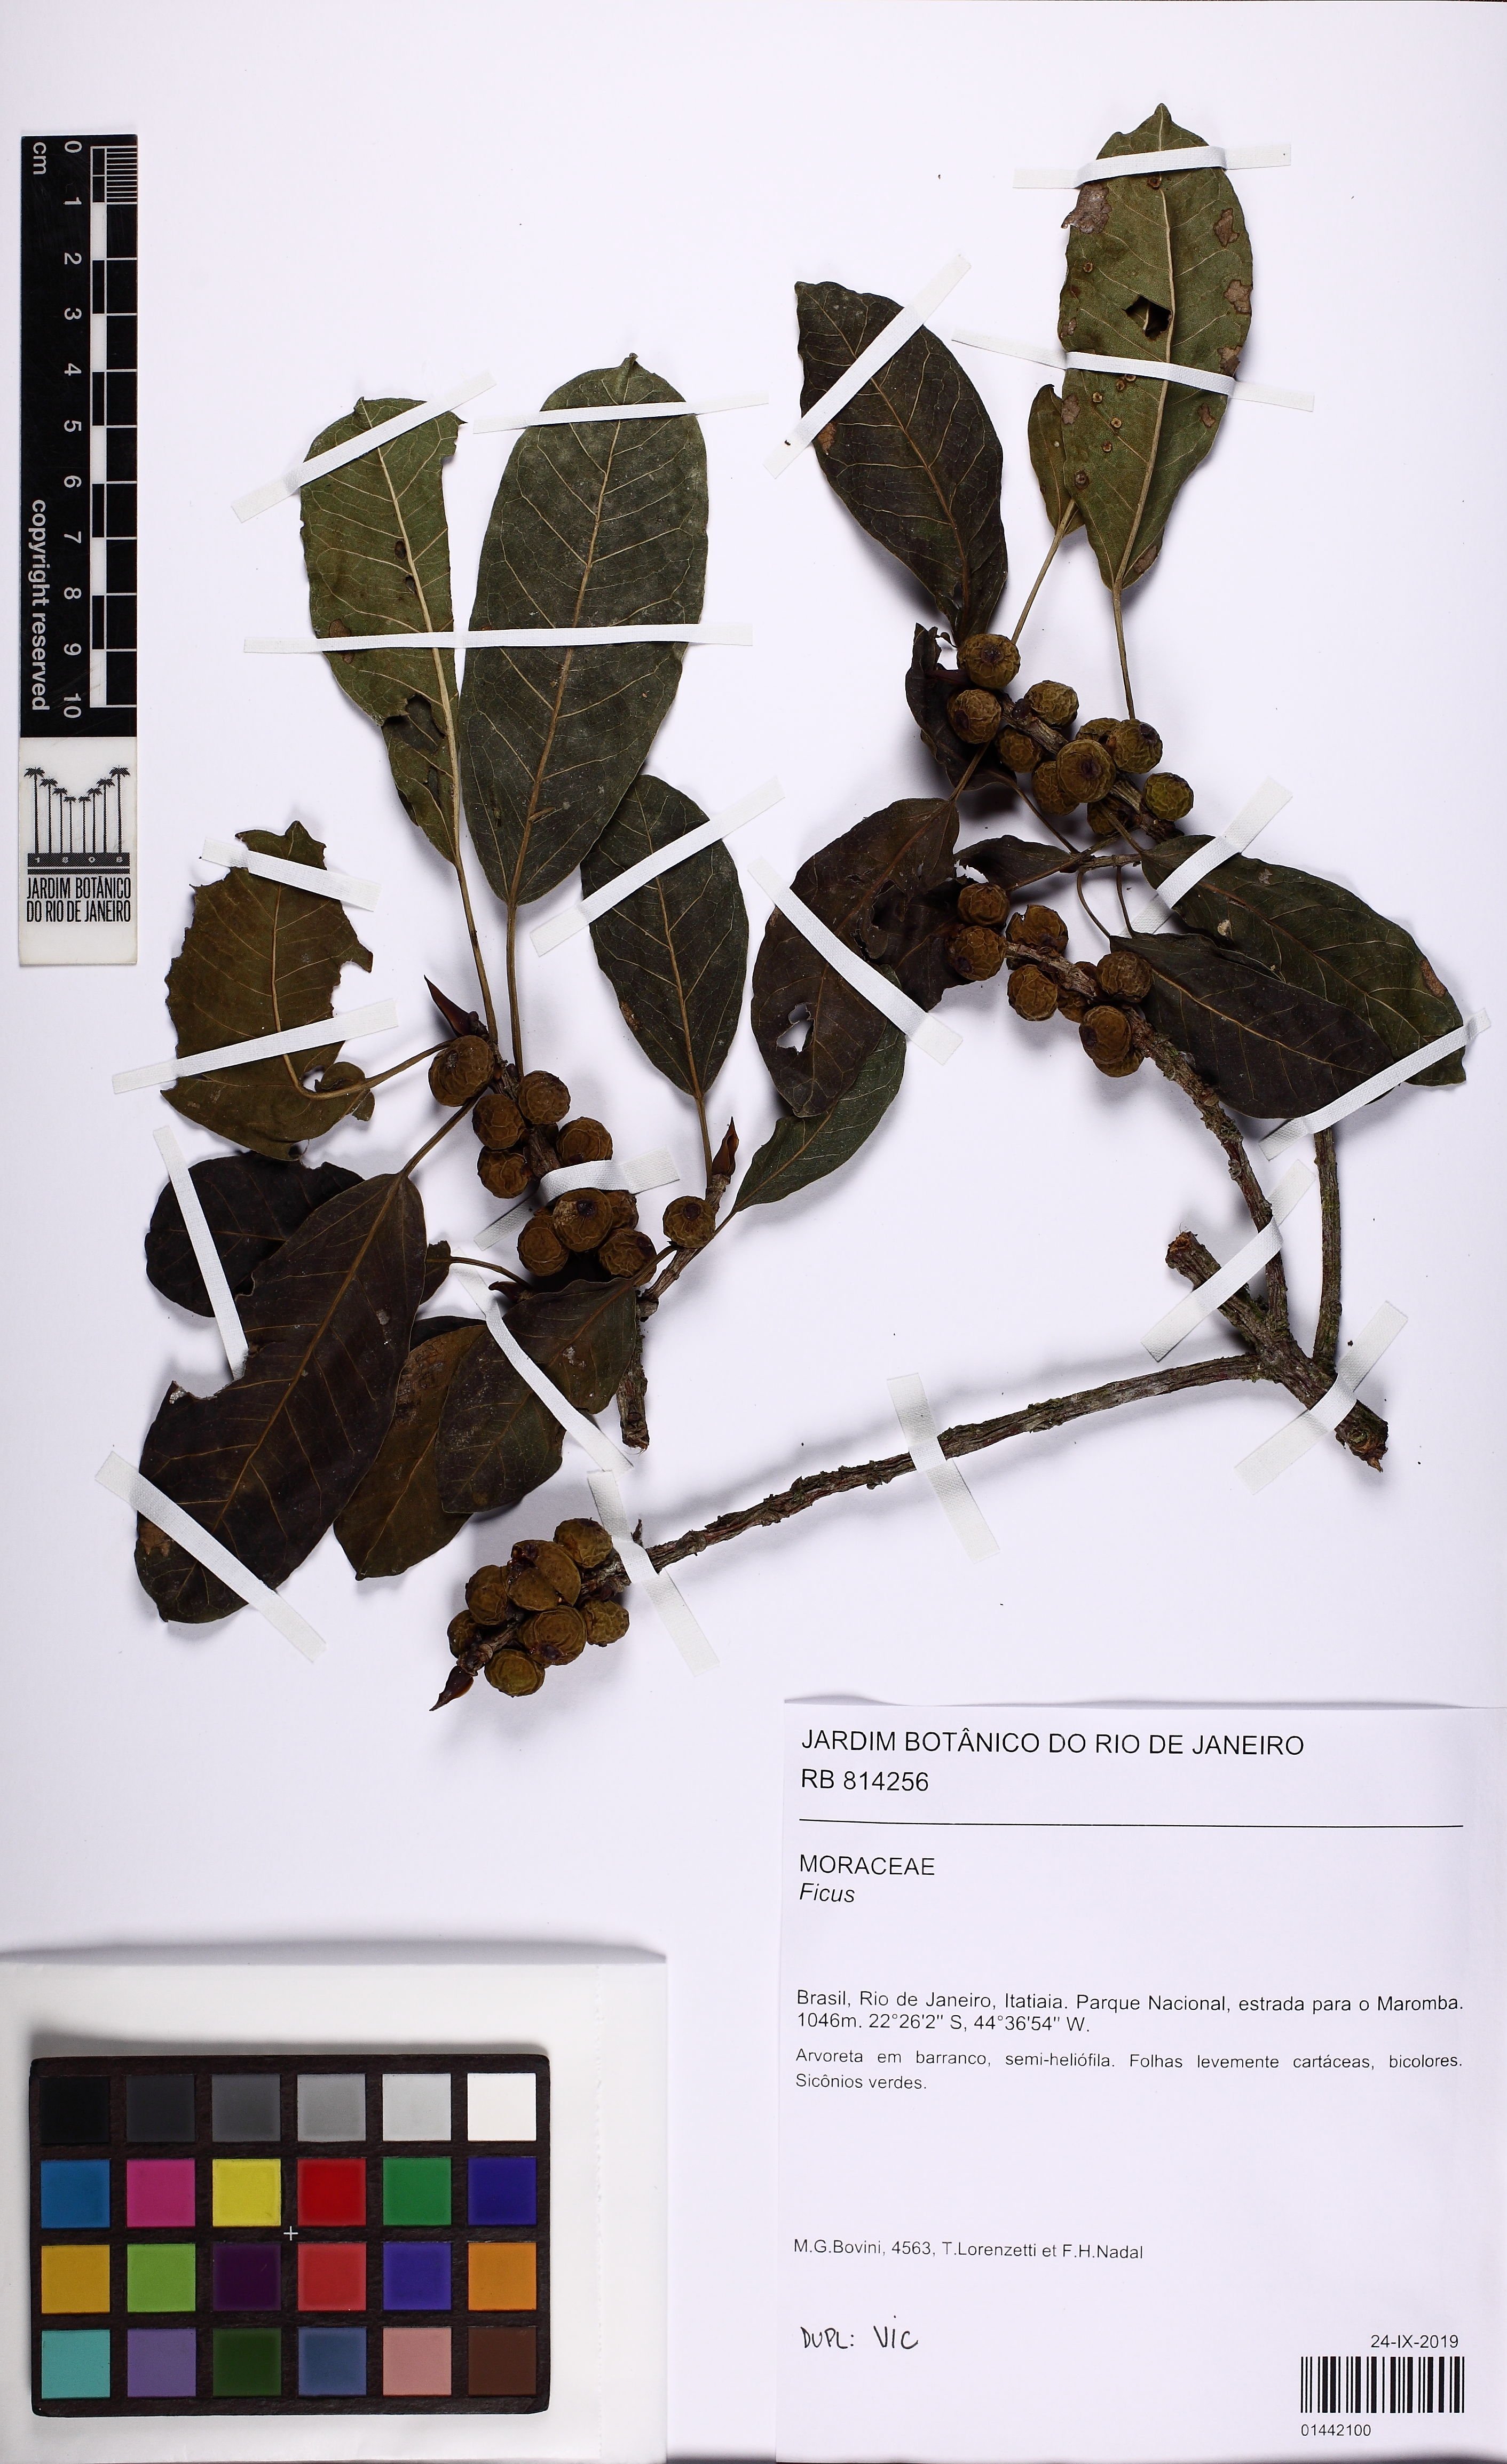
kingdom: Plantae
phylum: Tracheophyta
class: Magnoliopsida
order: Rosales
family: Moraceae
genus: Ficus
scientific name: Ficus luschnathiana
